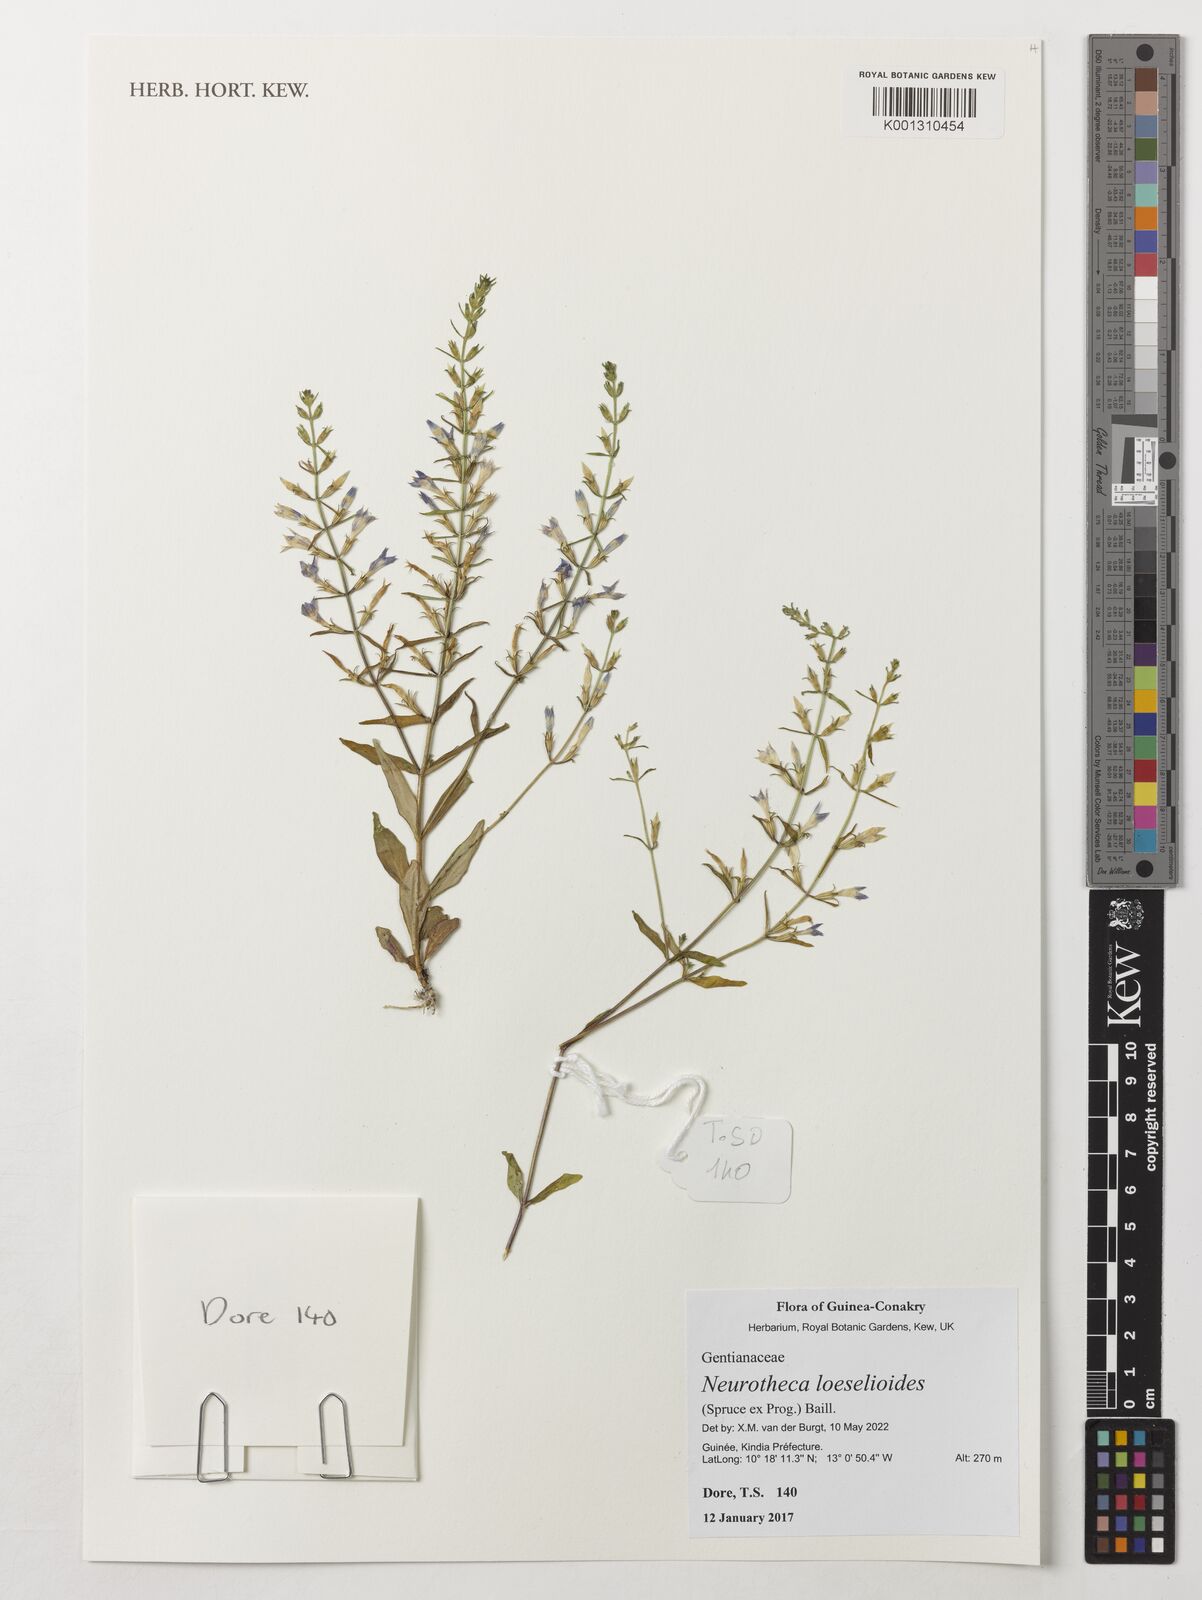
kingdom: Plantae
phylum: Tracheophyta
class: Magnoliopsida
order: Gentianales
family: Gentianaceae
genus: Neurotheca
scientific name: Neurotheca loeselioides
